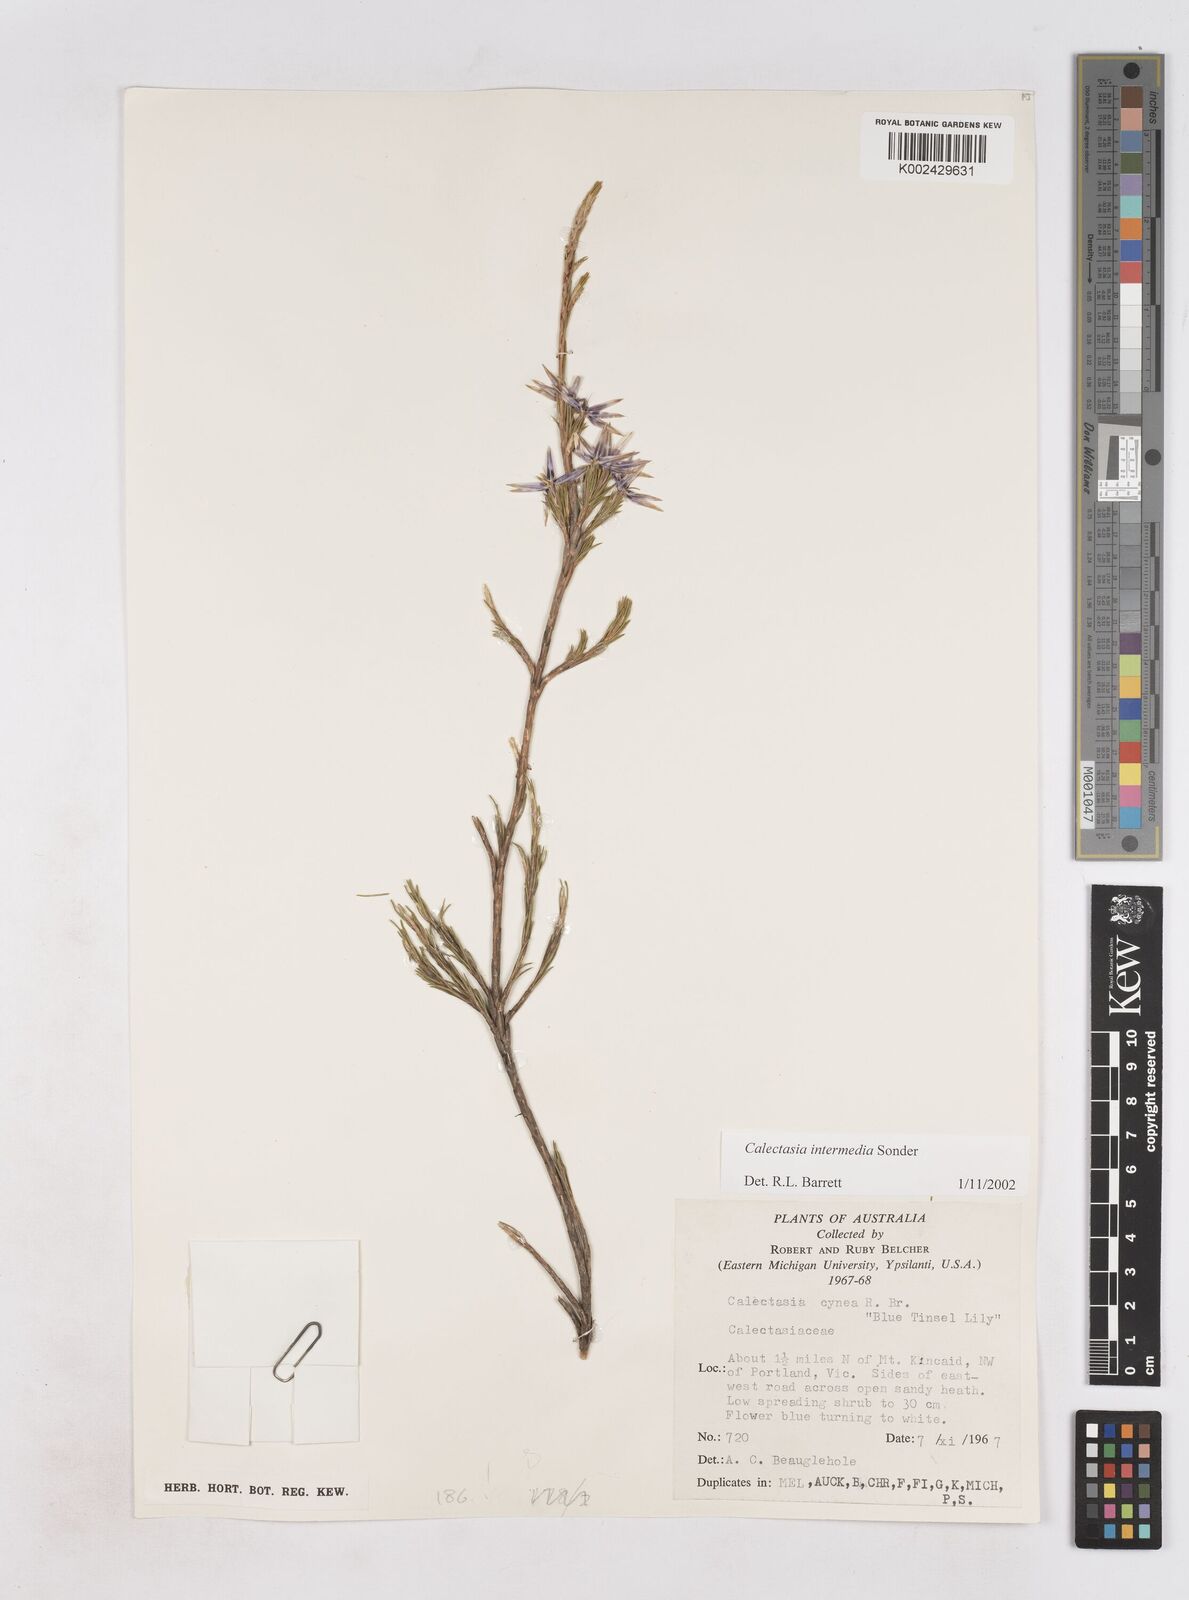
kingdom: Plantae
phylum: Tracheophyta
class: Liliopsida
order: Arecales
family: Dasypogonaceae
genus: Calectasia
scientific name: Calectasia intermedia
